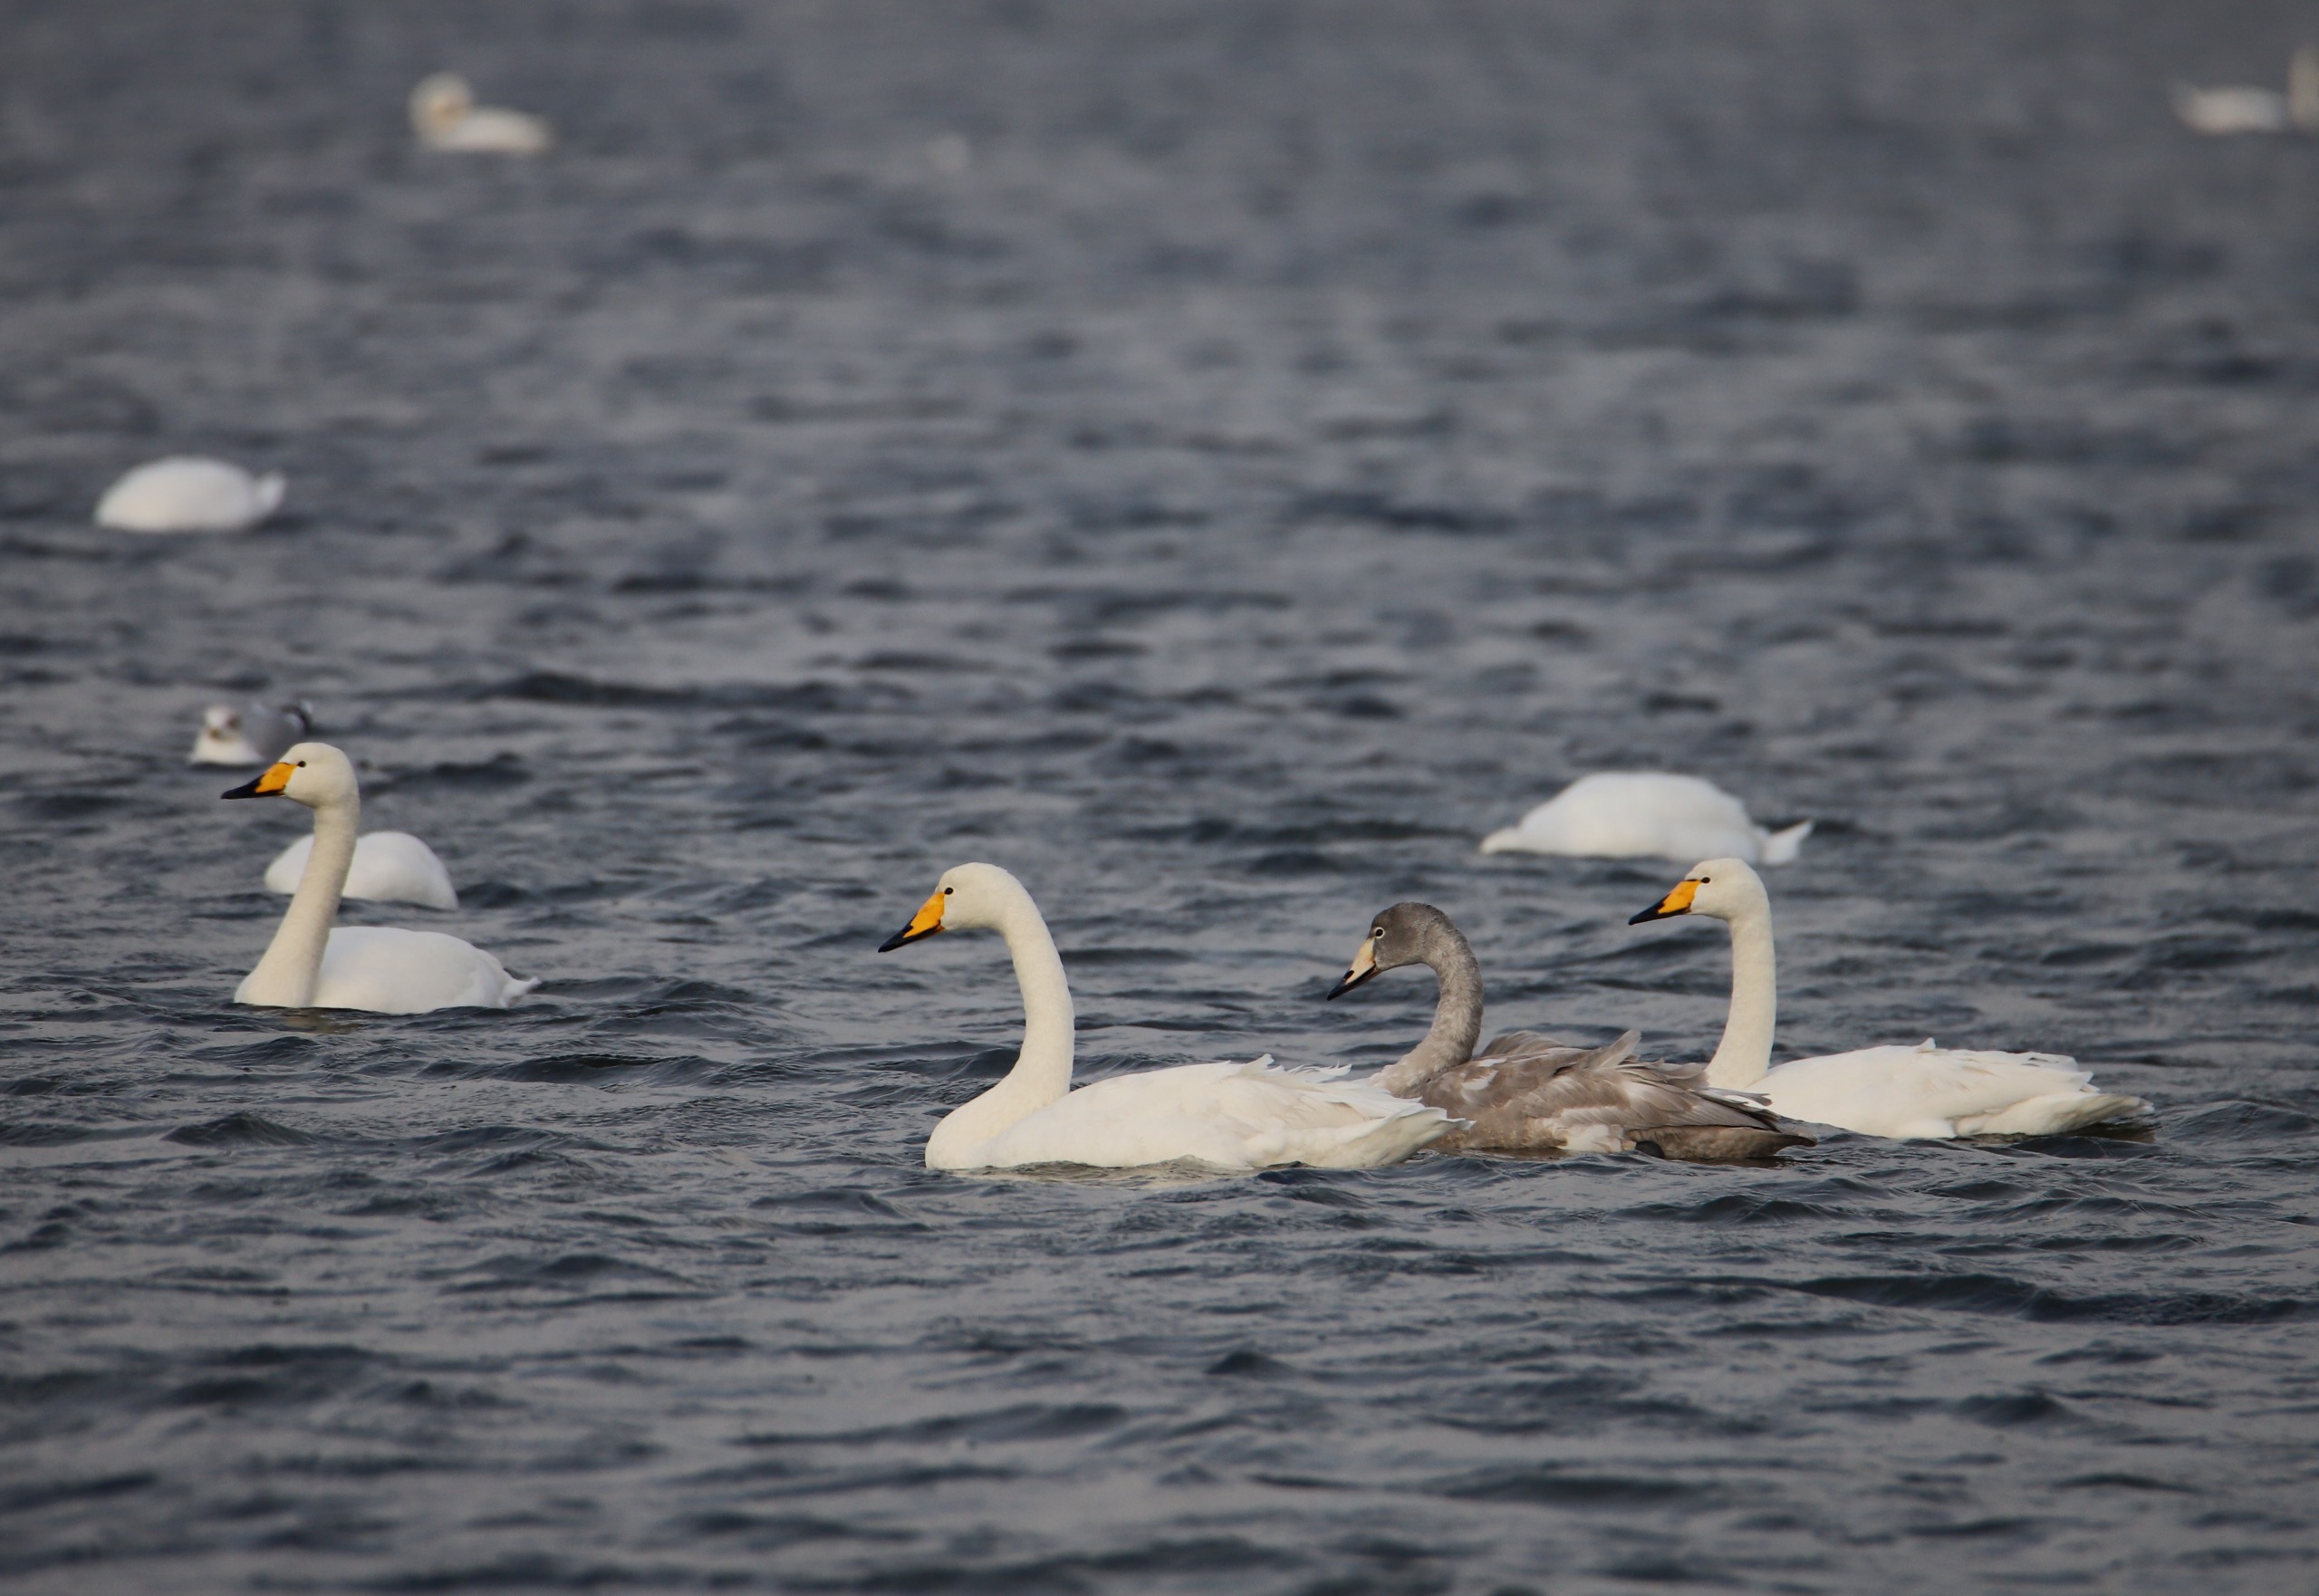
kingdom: Animalia
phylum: Chordata
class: Aves
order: Anseriformes
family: Anatidae
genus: Cygnus
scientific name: Cygnus cygnus
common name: Sangsvane
